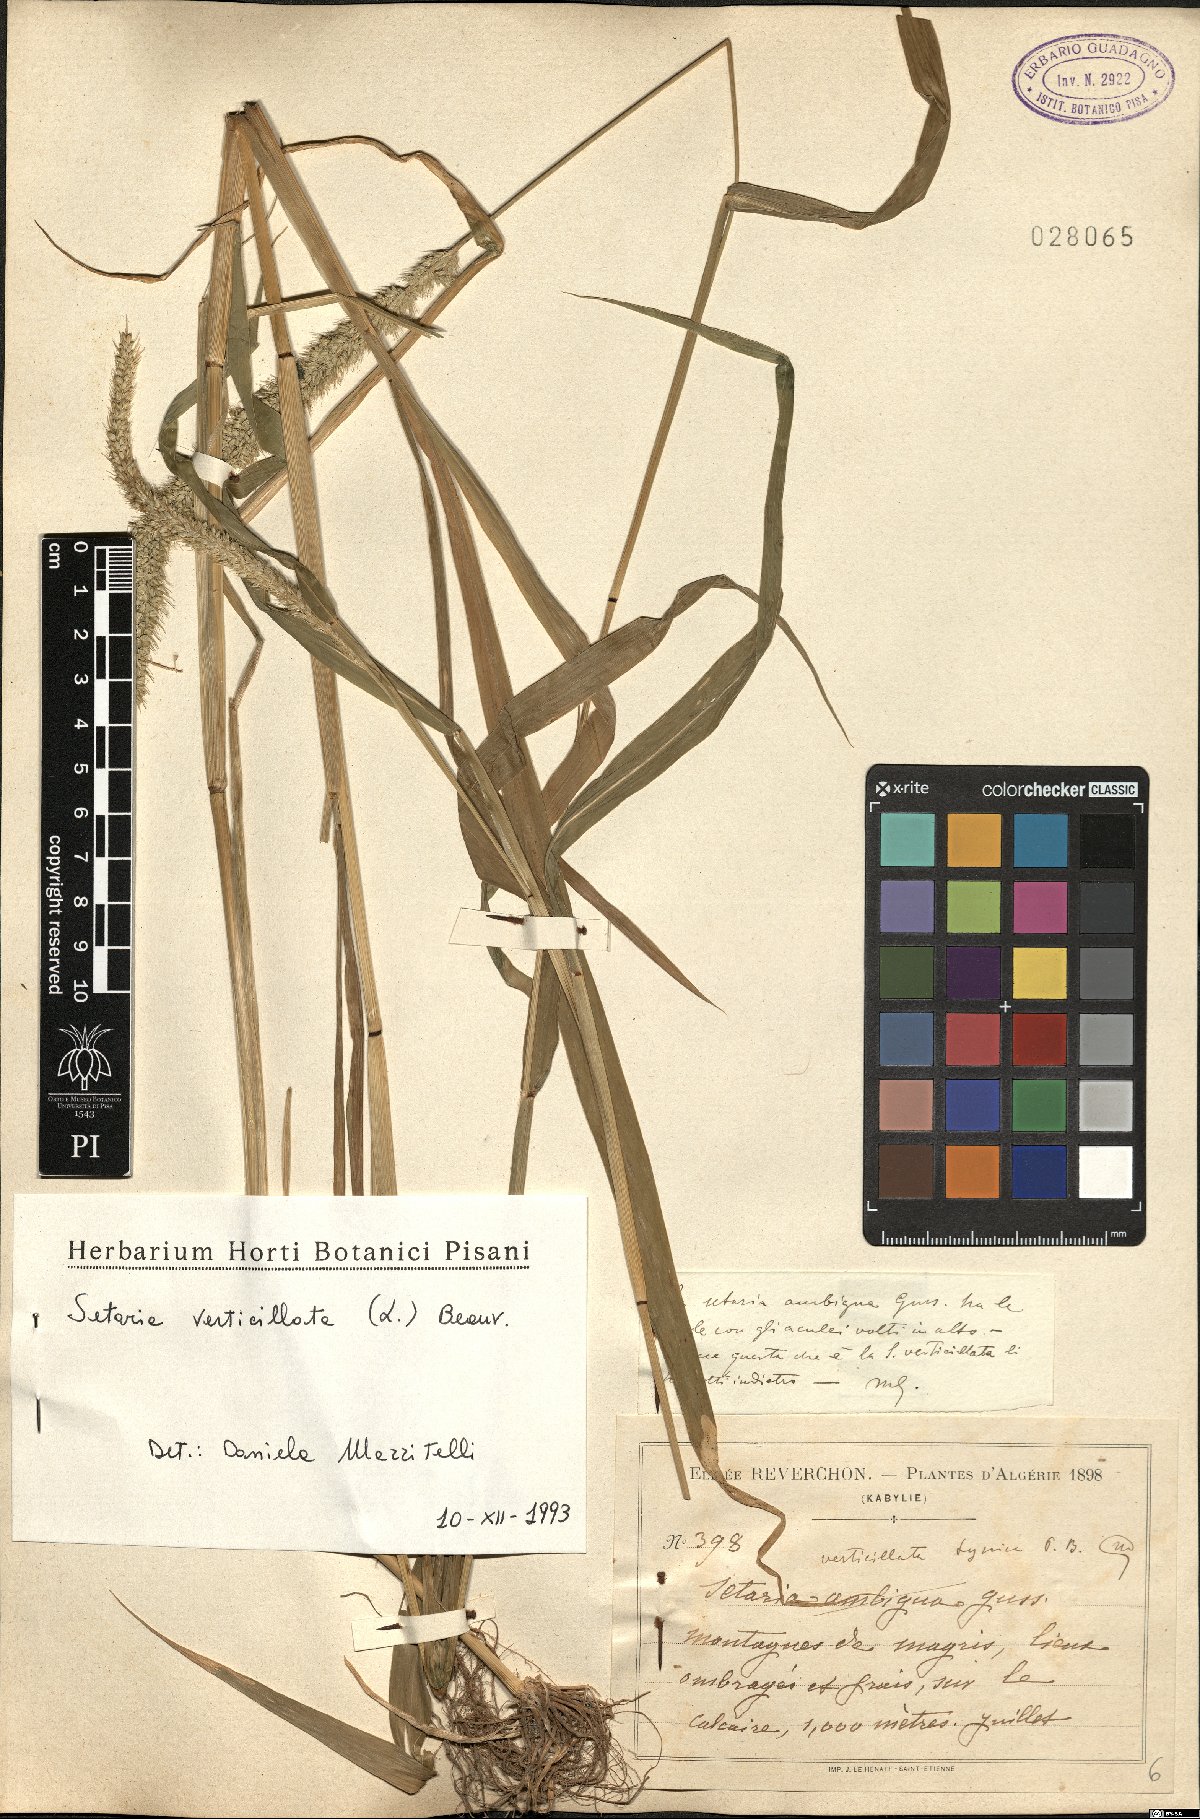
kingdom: Plantae
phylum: Tracheophyta
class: Liliopsida
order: Poales
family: Poaceae
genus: Setaria
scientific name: Setaria verticillata
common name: Hooked bristlegrass
